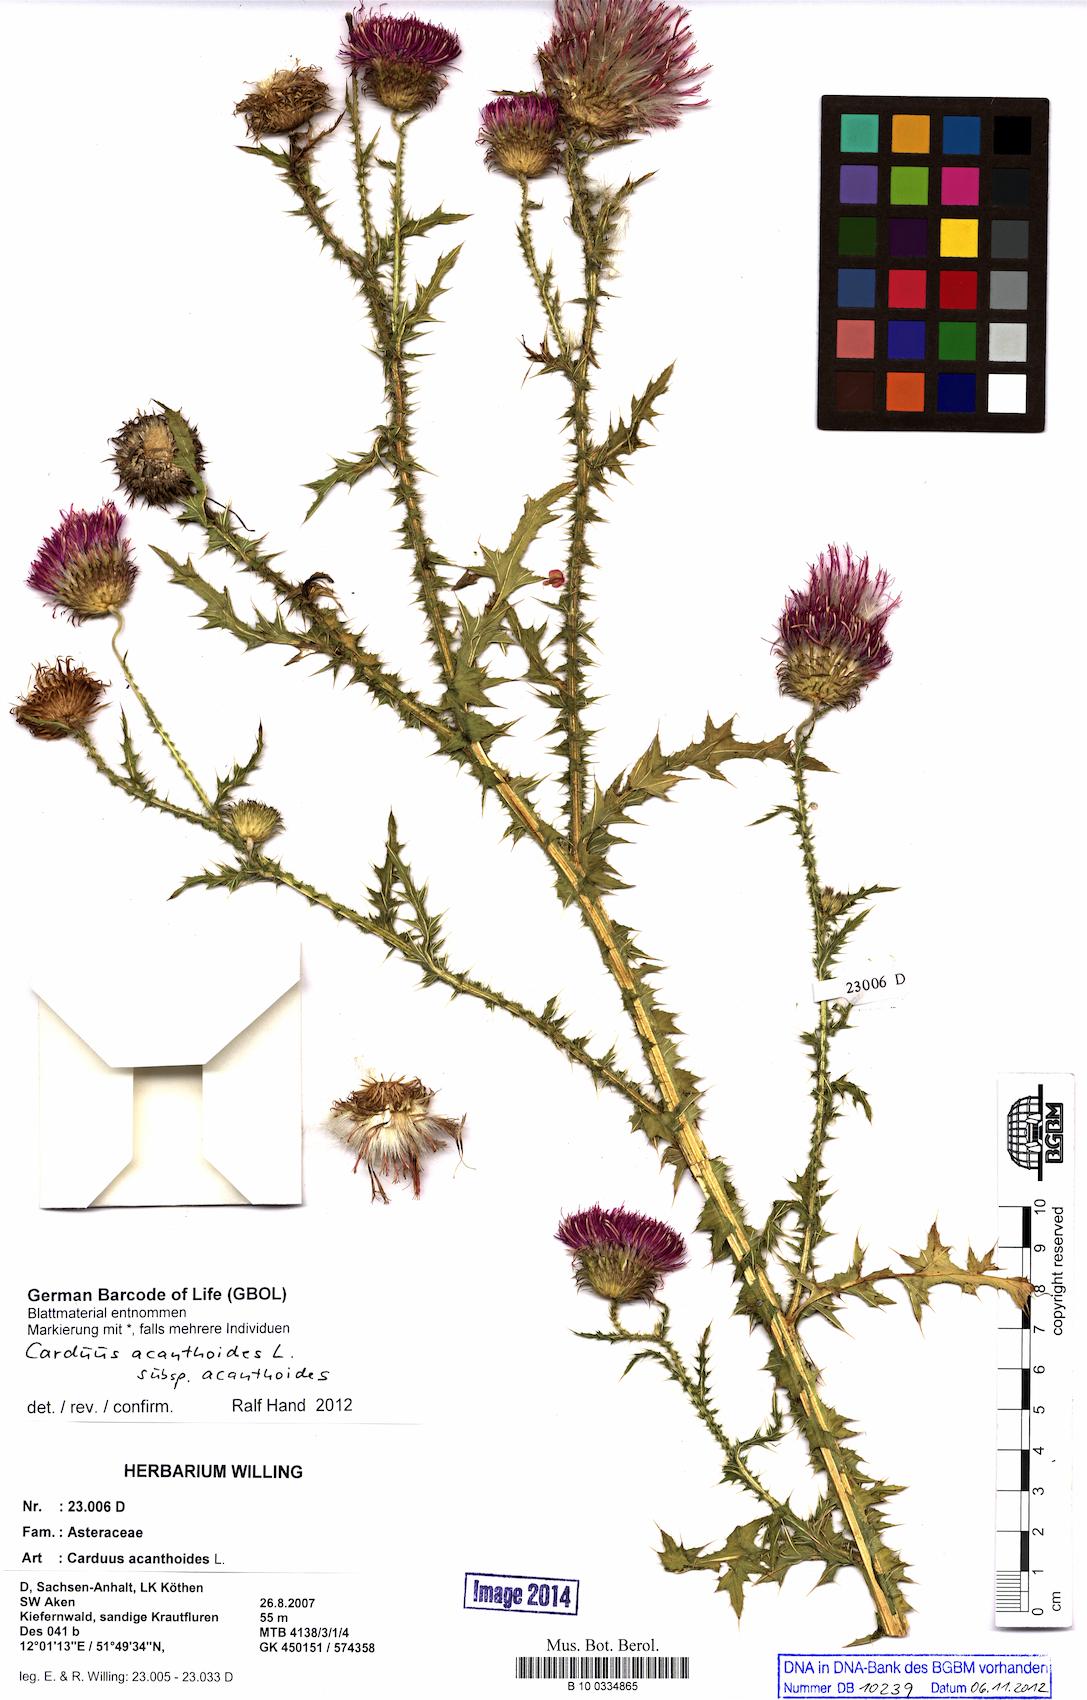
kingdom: Plantae
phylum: Tracheophyta
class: Magnoliopsida
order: Asterales
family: Asteraceae
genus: Carduus
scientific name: Carduus acanthoides
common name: Plumeless thistle
